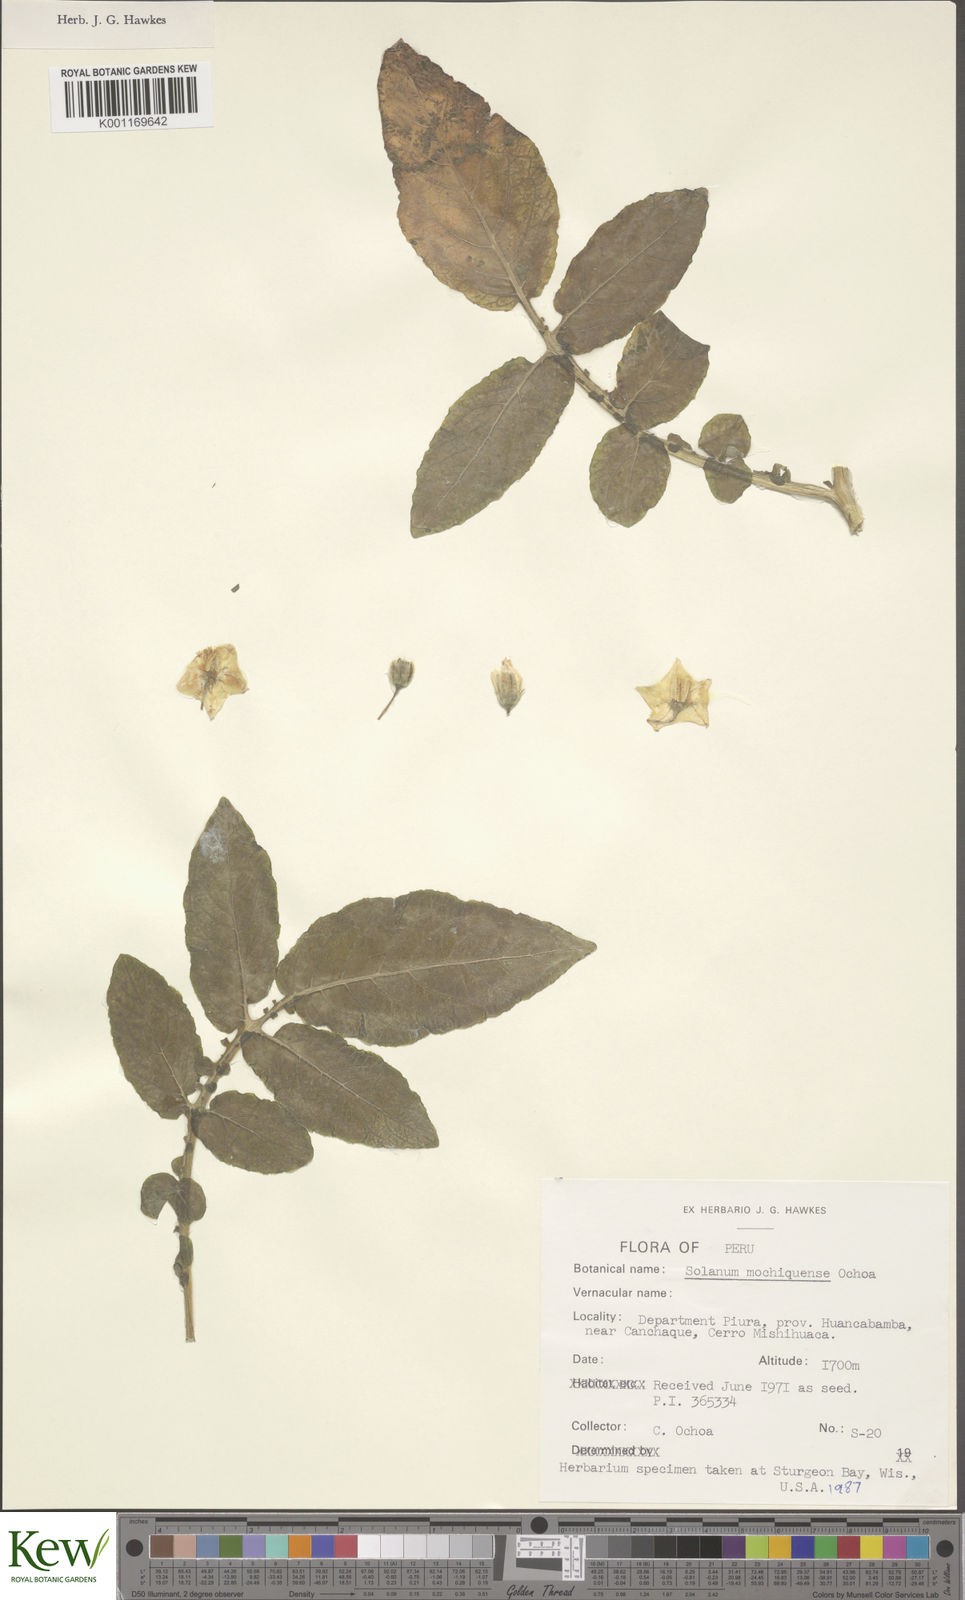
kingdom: Plantae
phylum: Tracheophyta
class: Magnoliopsida
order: Solanales
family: Solanaceae
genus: Solanum
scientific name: Solanum mochiquense
